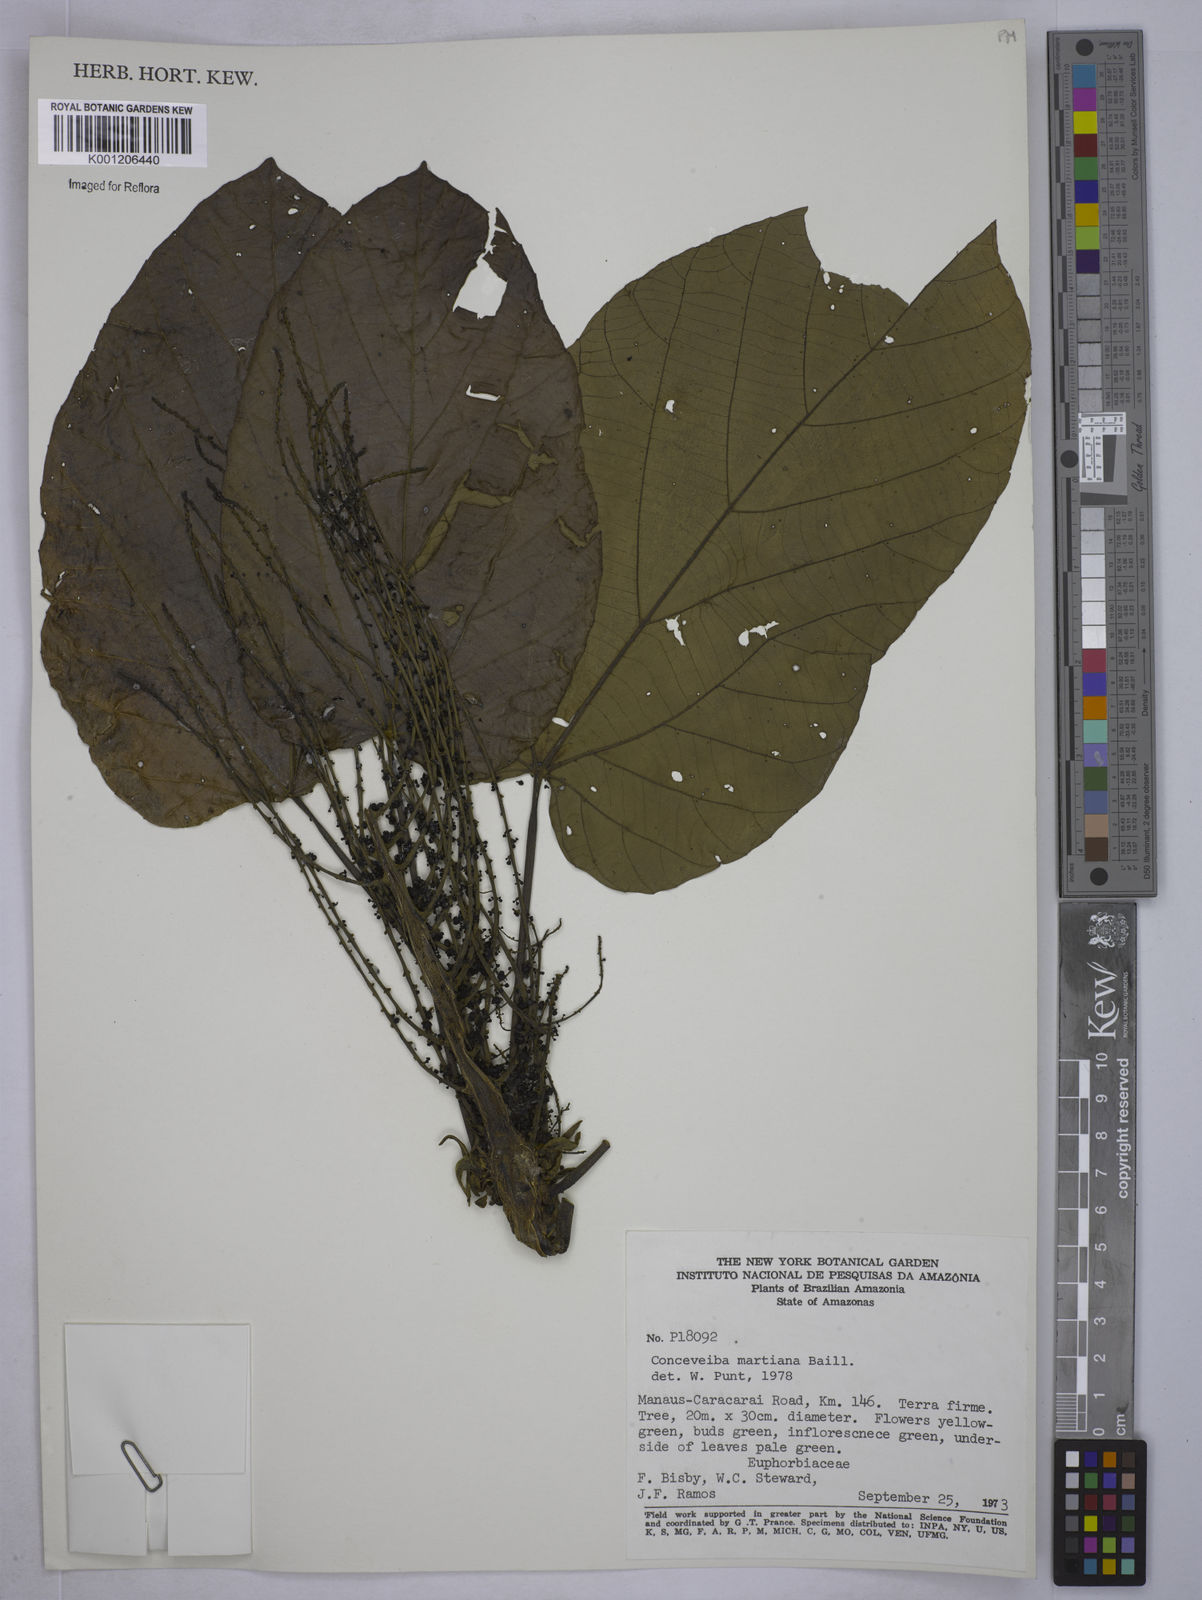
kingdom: Plantae
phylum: Tracheophyta
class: Magnoliopsida
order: Malpighiales
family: Euphorbiaceae
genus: Conceveiba
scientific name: Conceveiba martiana
